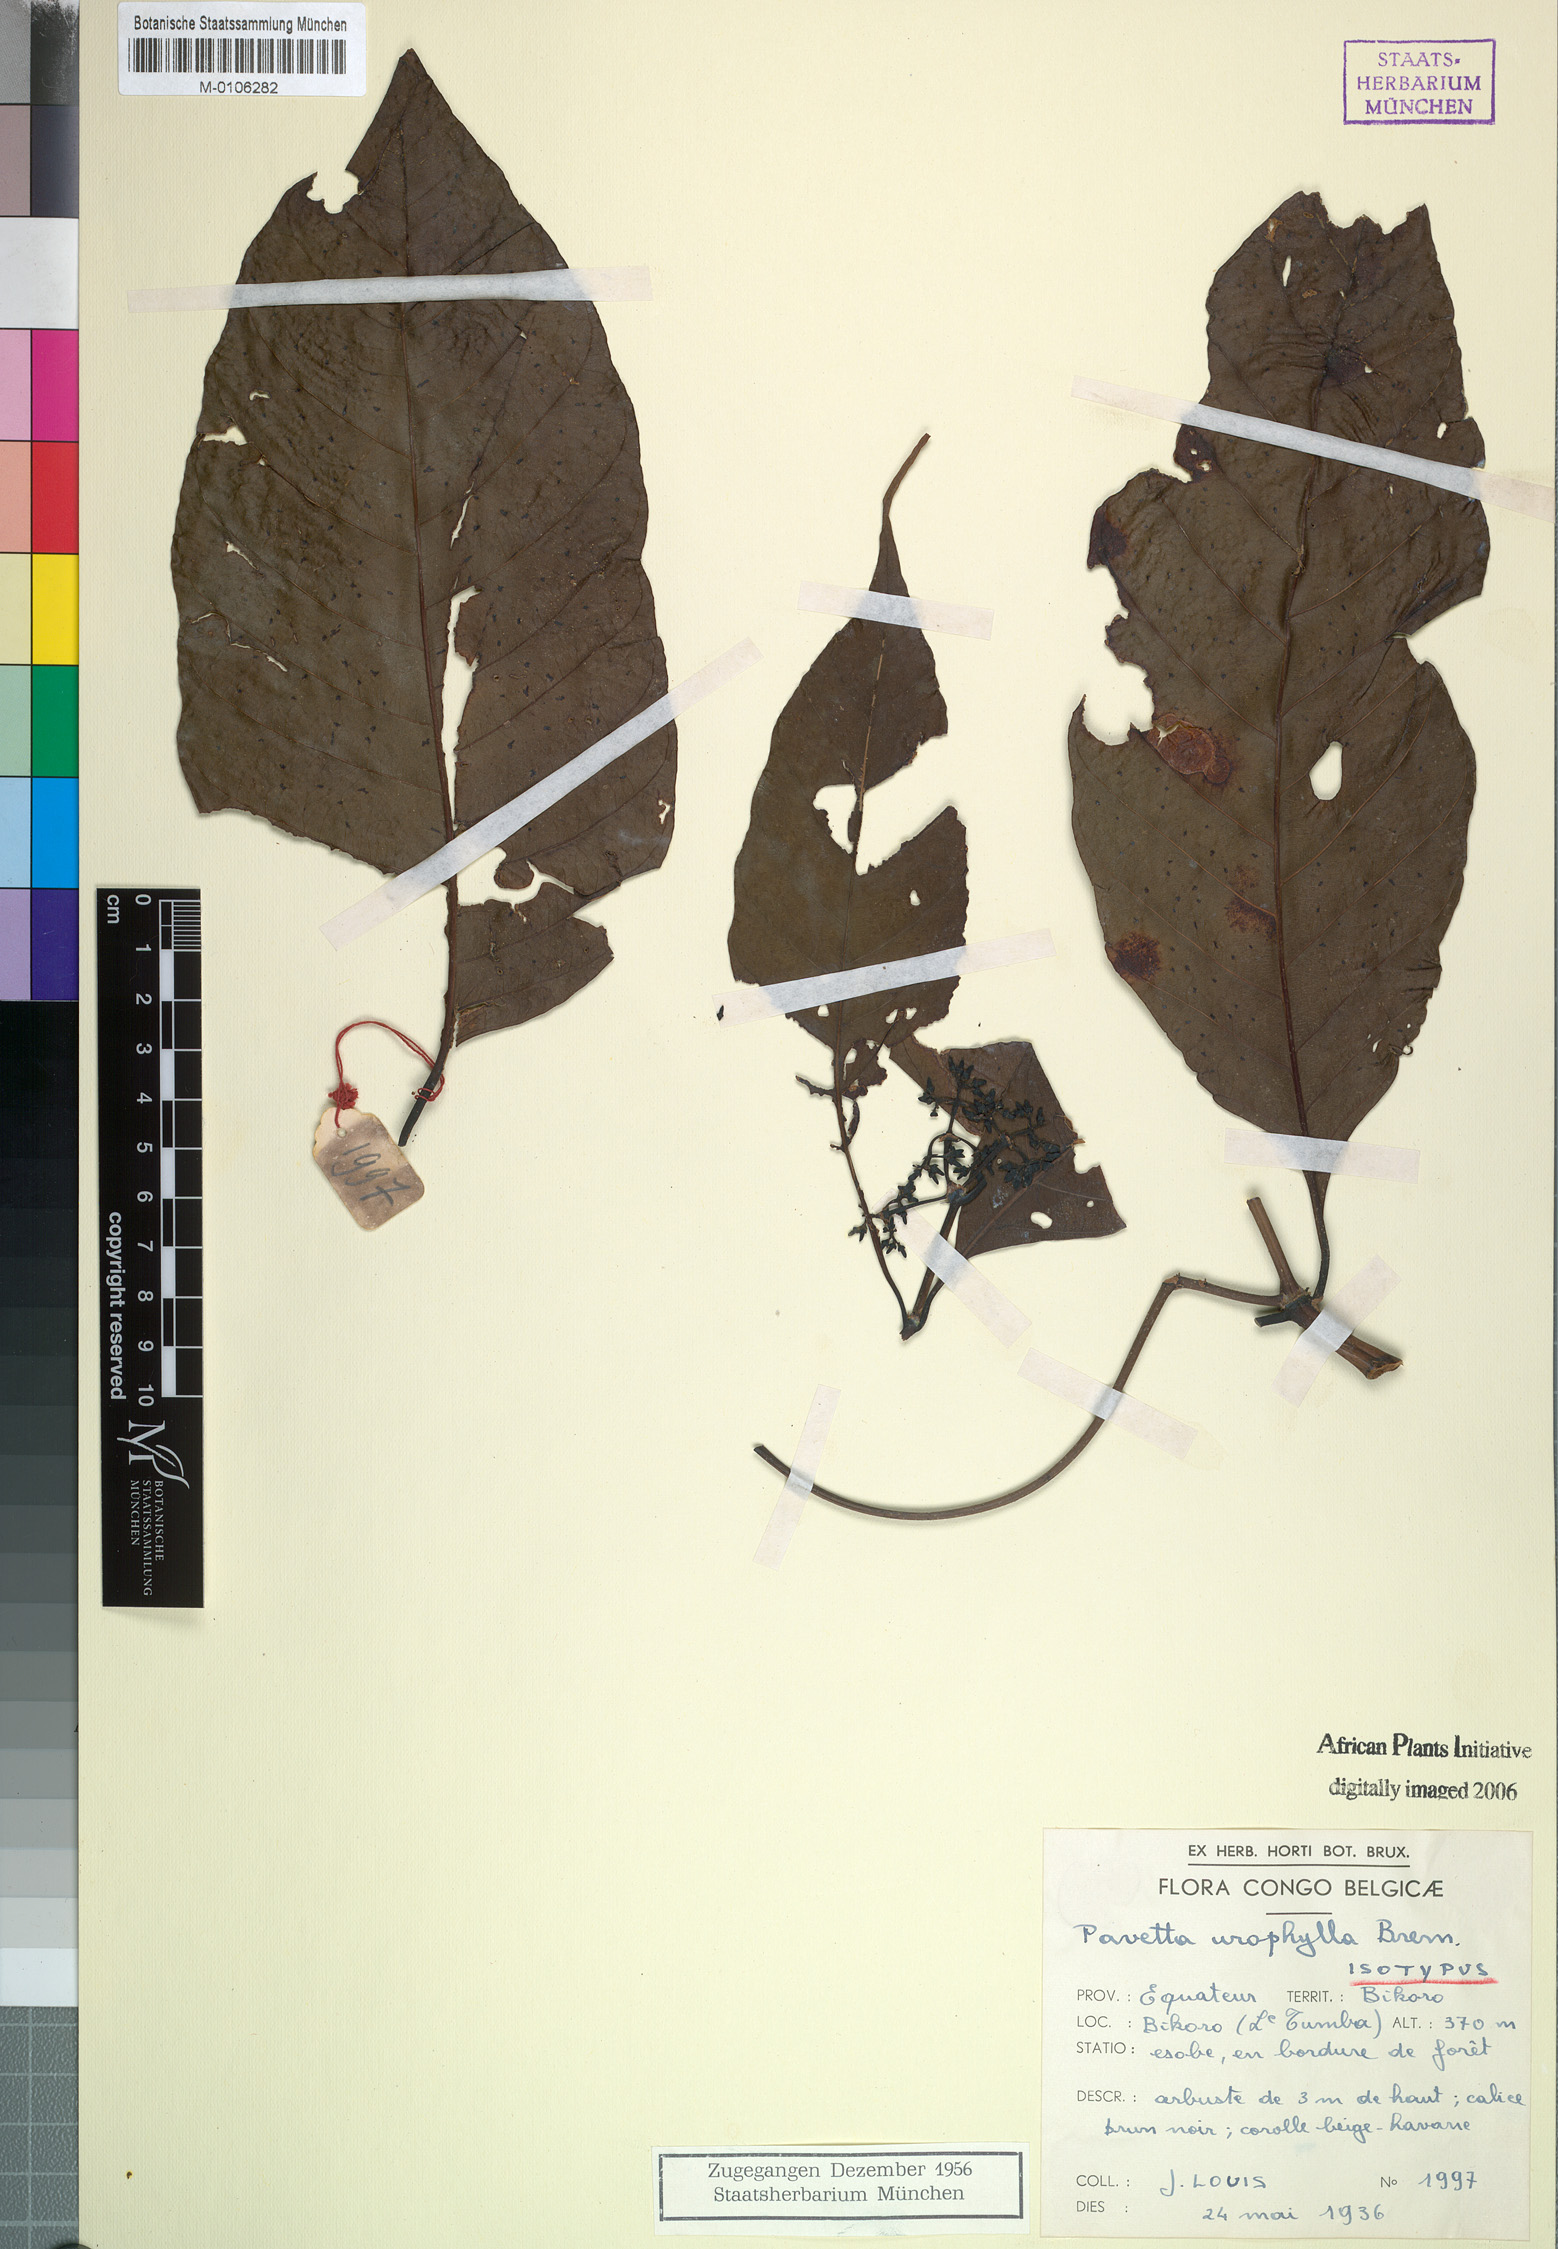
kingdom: Plantae
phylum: Tracheophyta
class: Magnoliopsida
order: Gentianales
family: Rubiaceae
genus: Pavetta
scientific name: Pavetta urophylla
